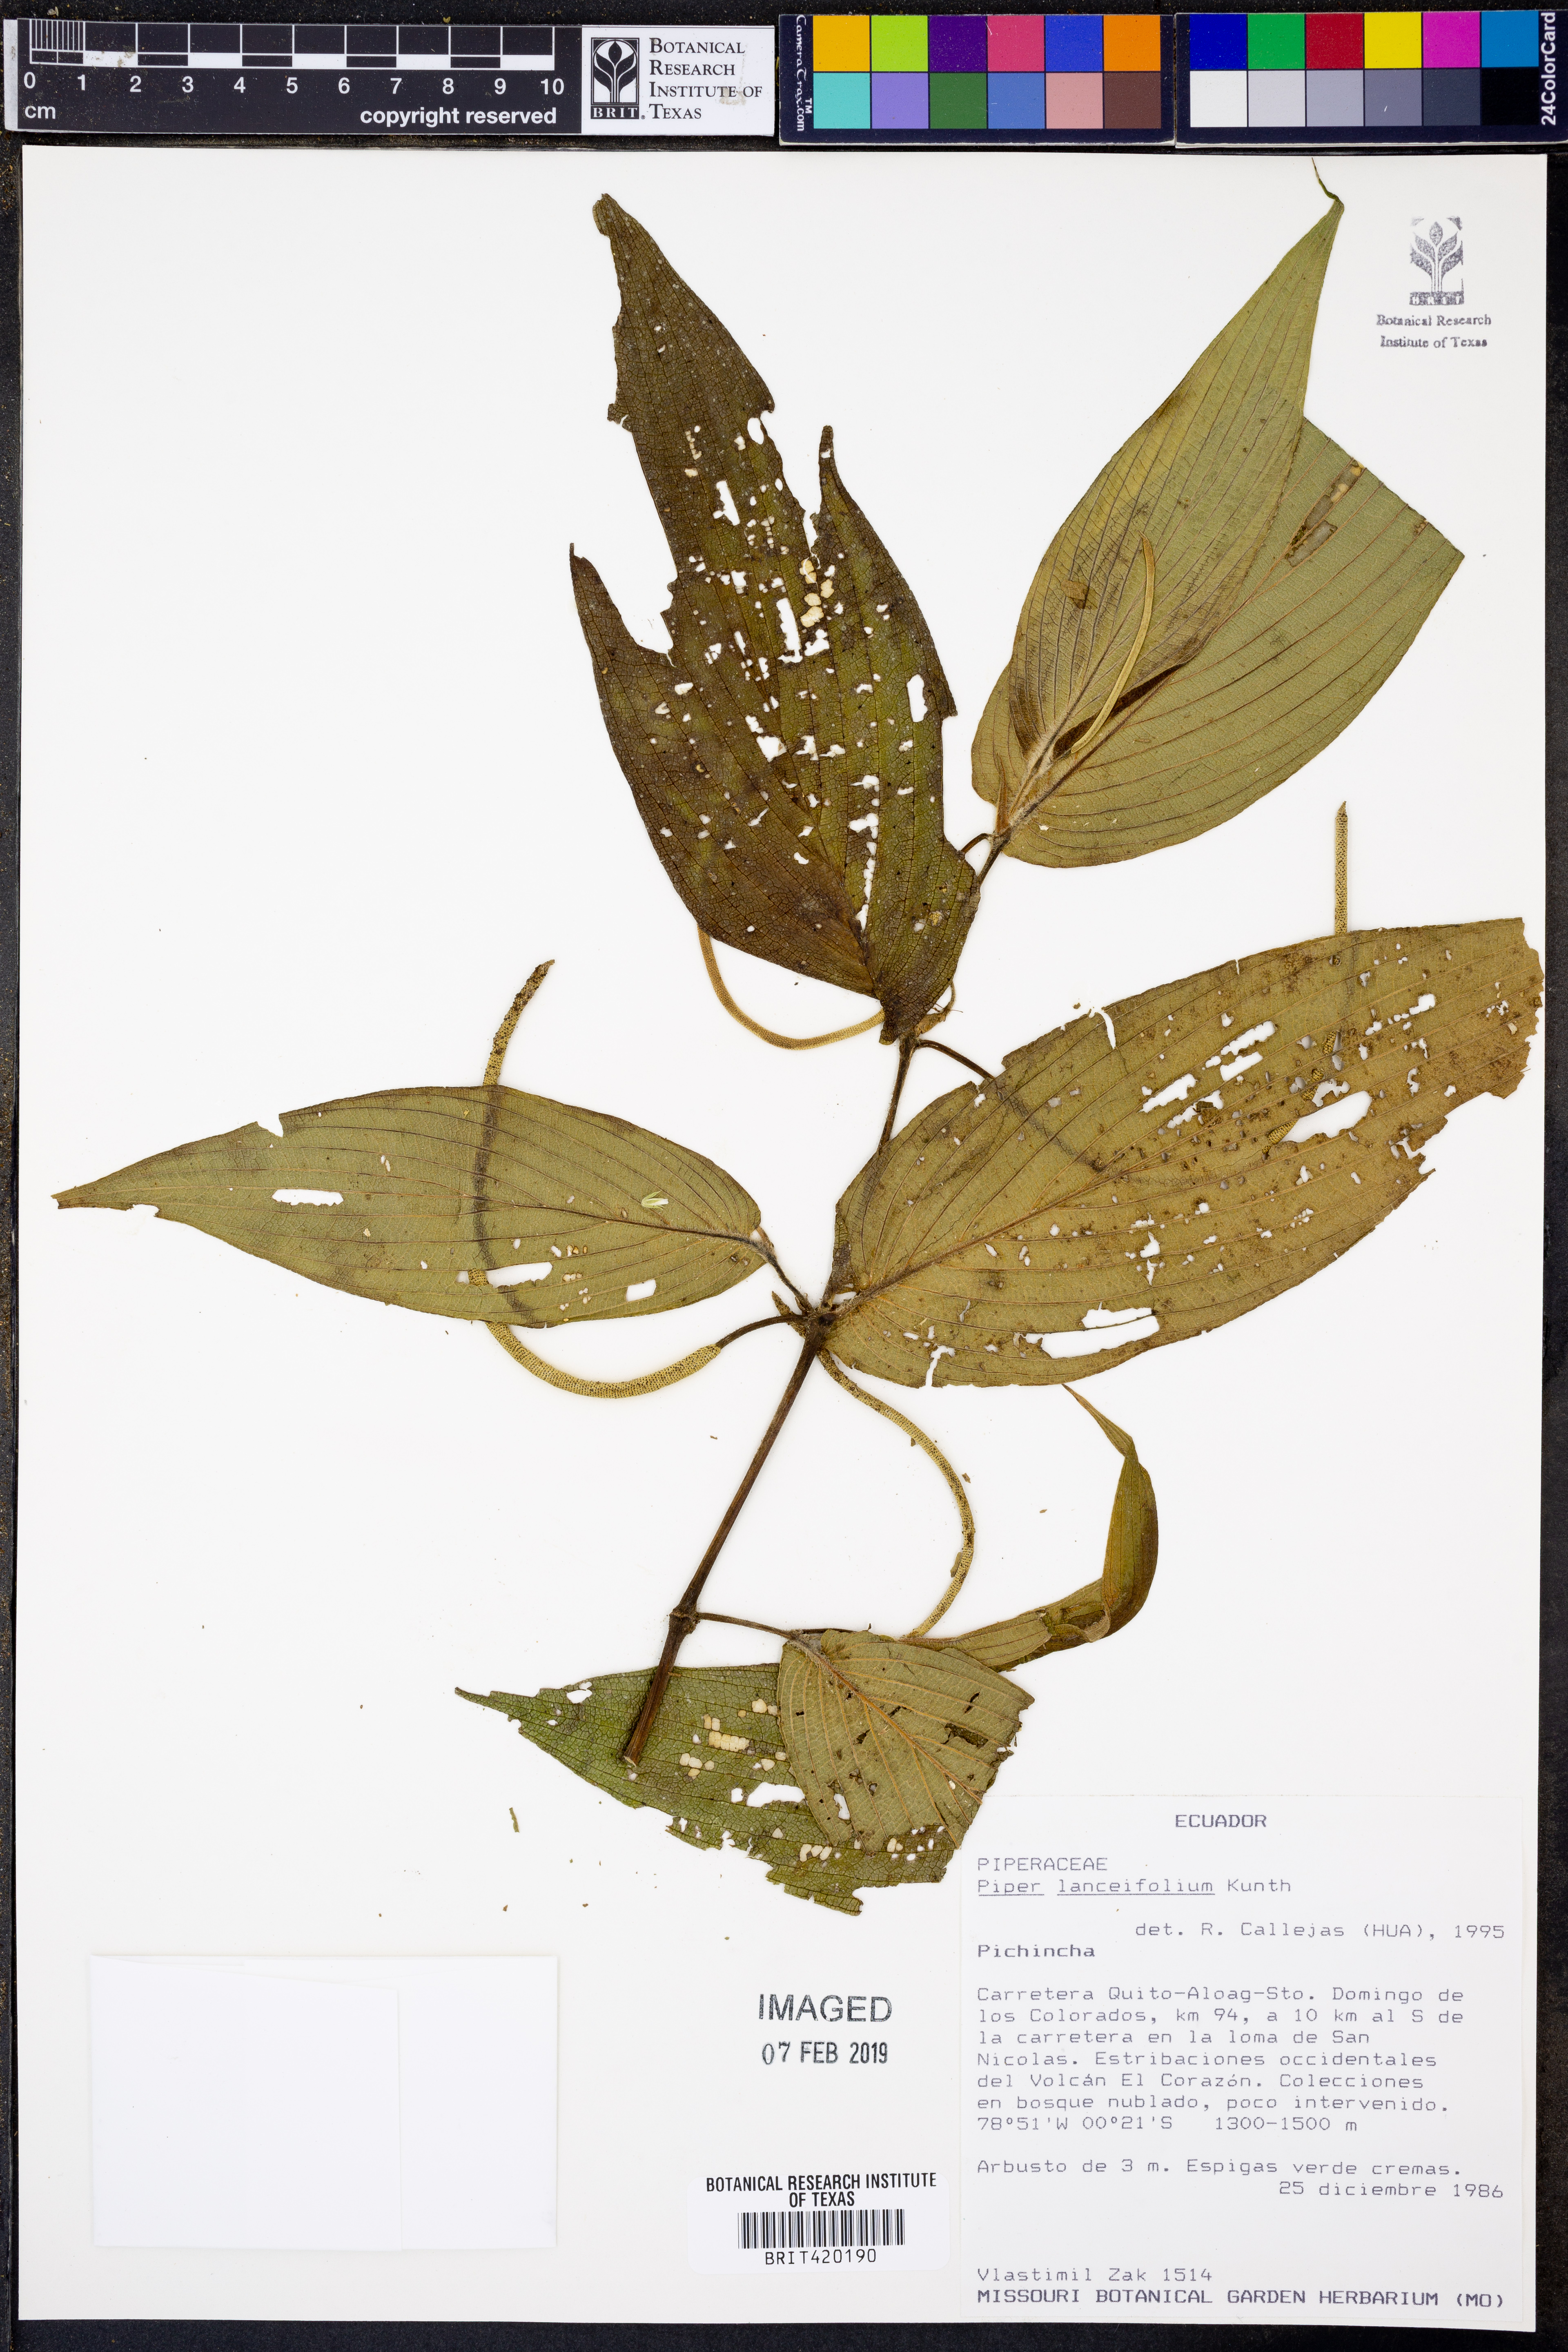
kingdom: Plantae
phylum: Tracheophyta
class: Magnoliopsida
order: Piperales
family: Piperaceae
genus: Piper
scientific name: Piper lanceifolium
